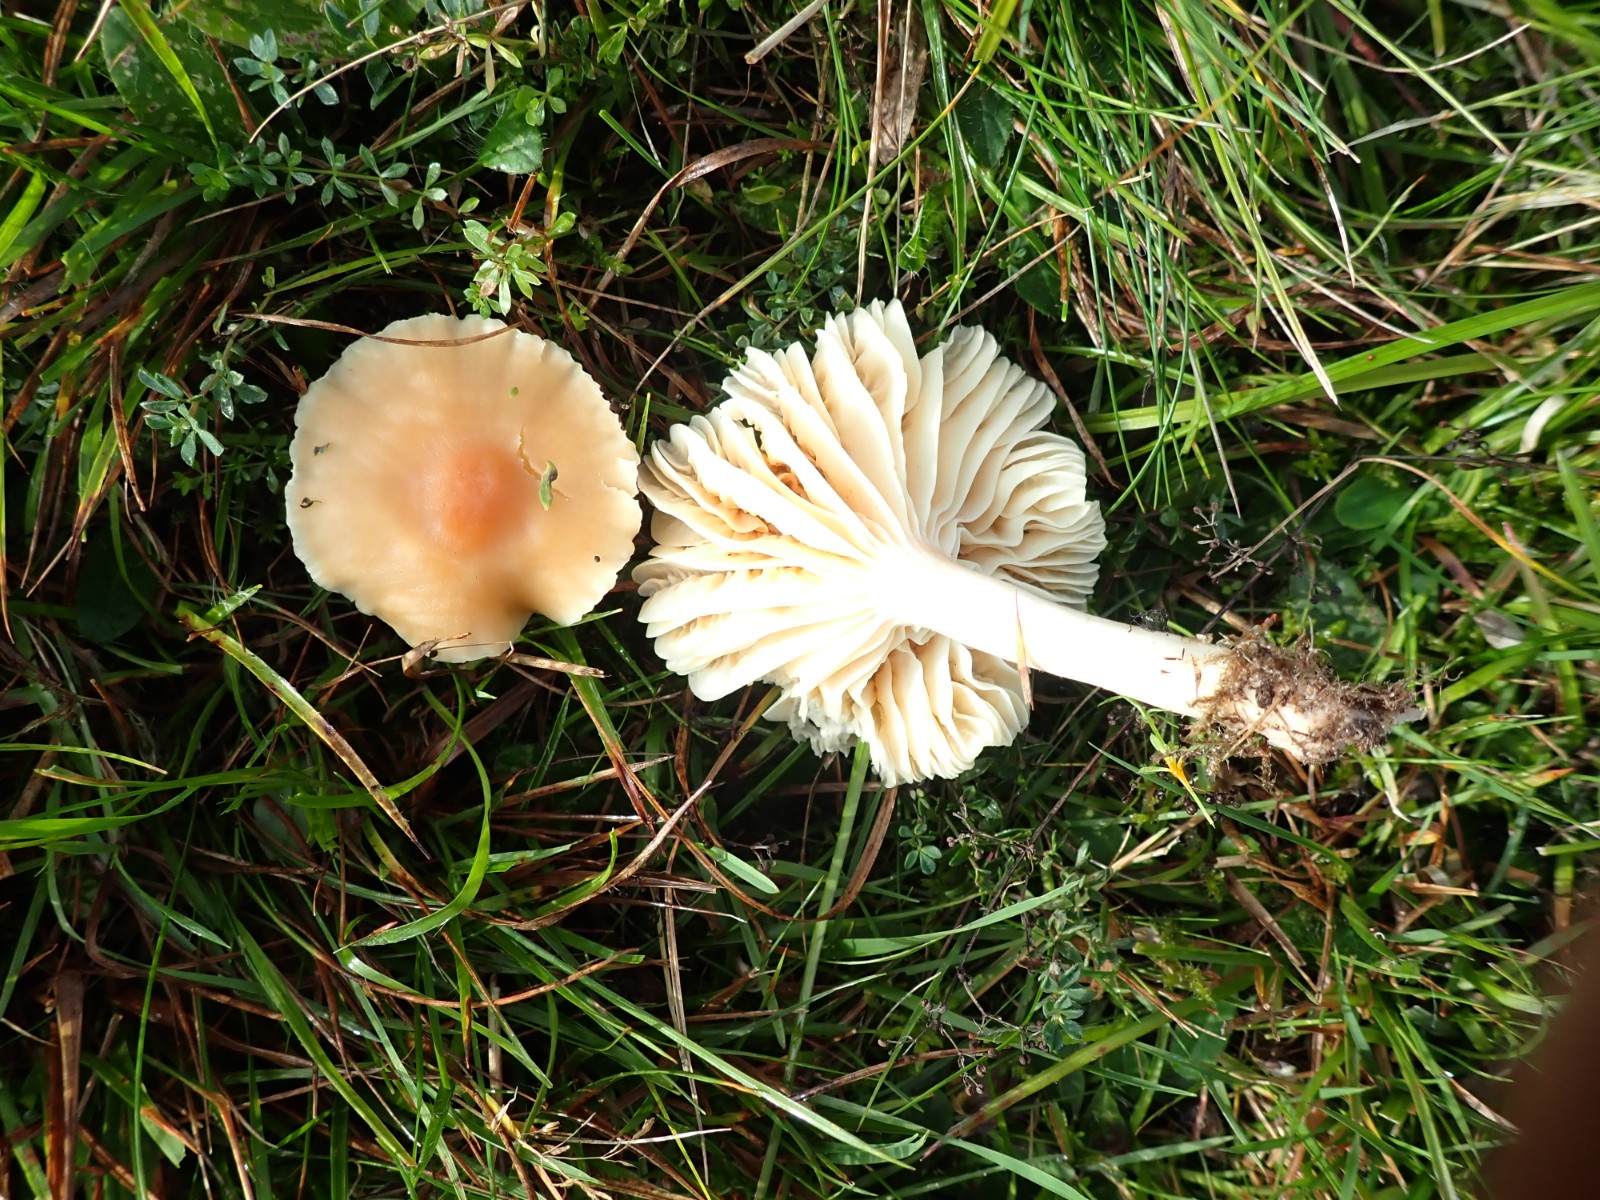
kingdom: Fungi
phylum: Basidiomycota
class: Agaricomycetes
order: Agaricales
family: Hygrophoraceae
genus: Cuphophyllus
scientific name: Cuphophyllus pratensis
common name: eng-vokshat
